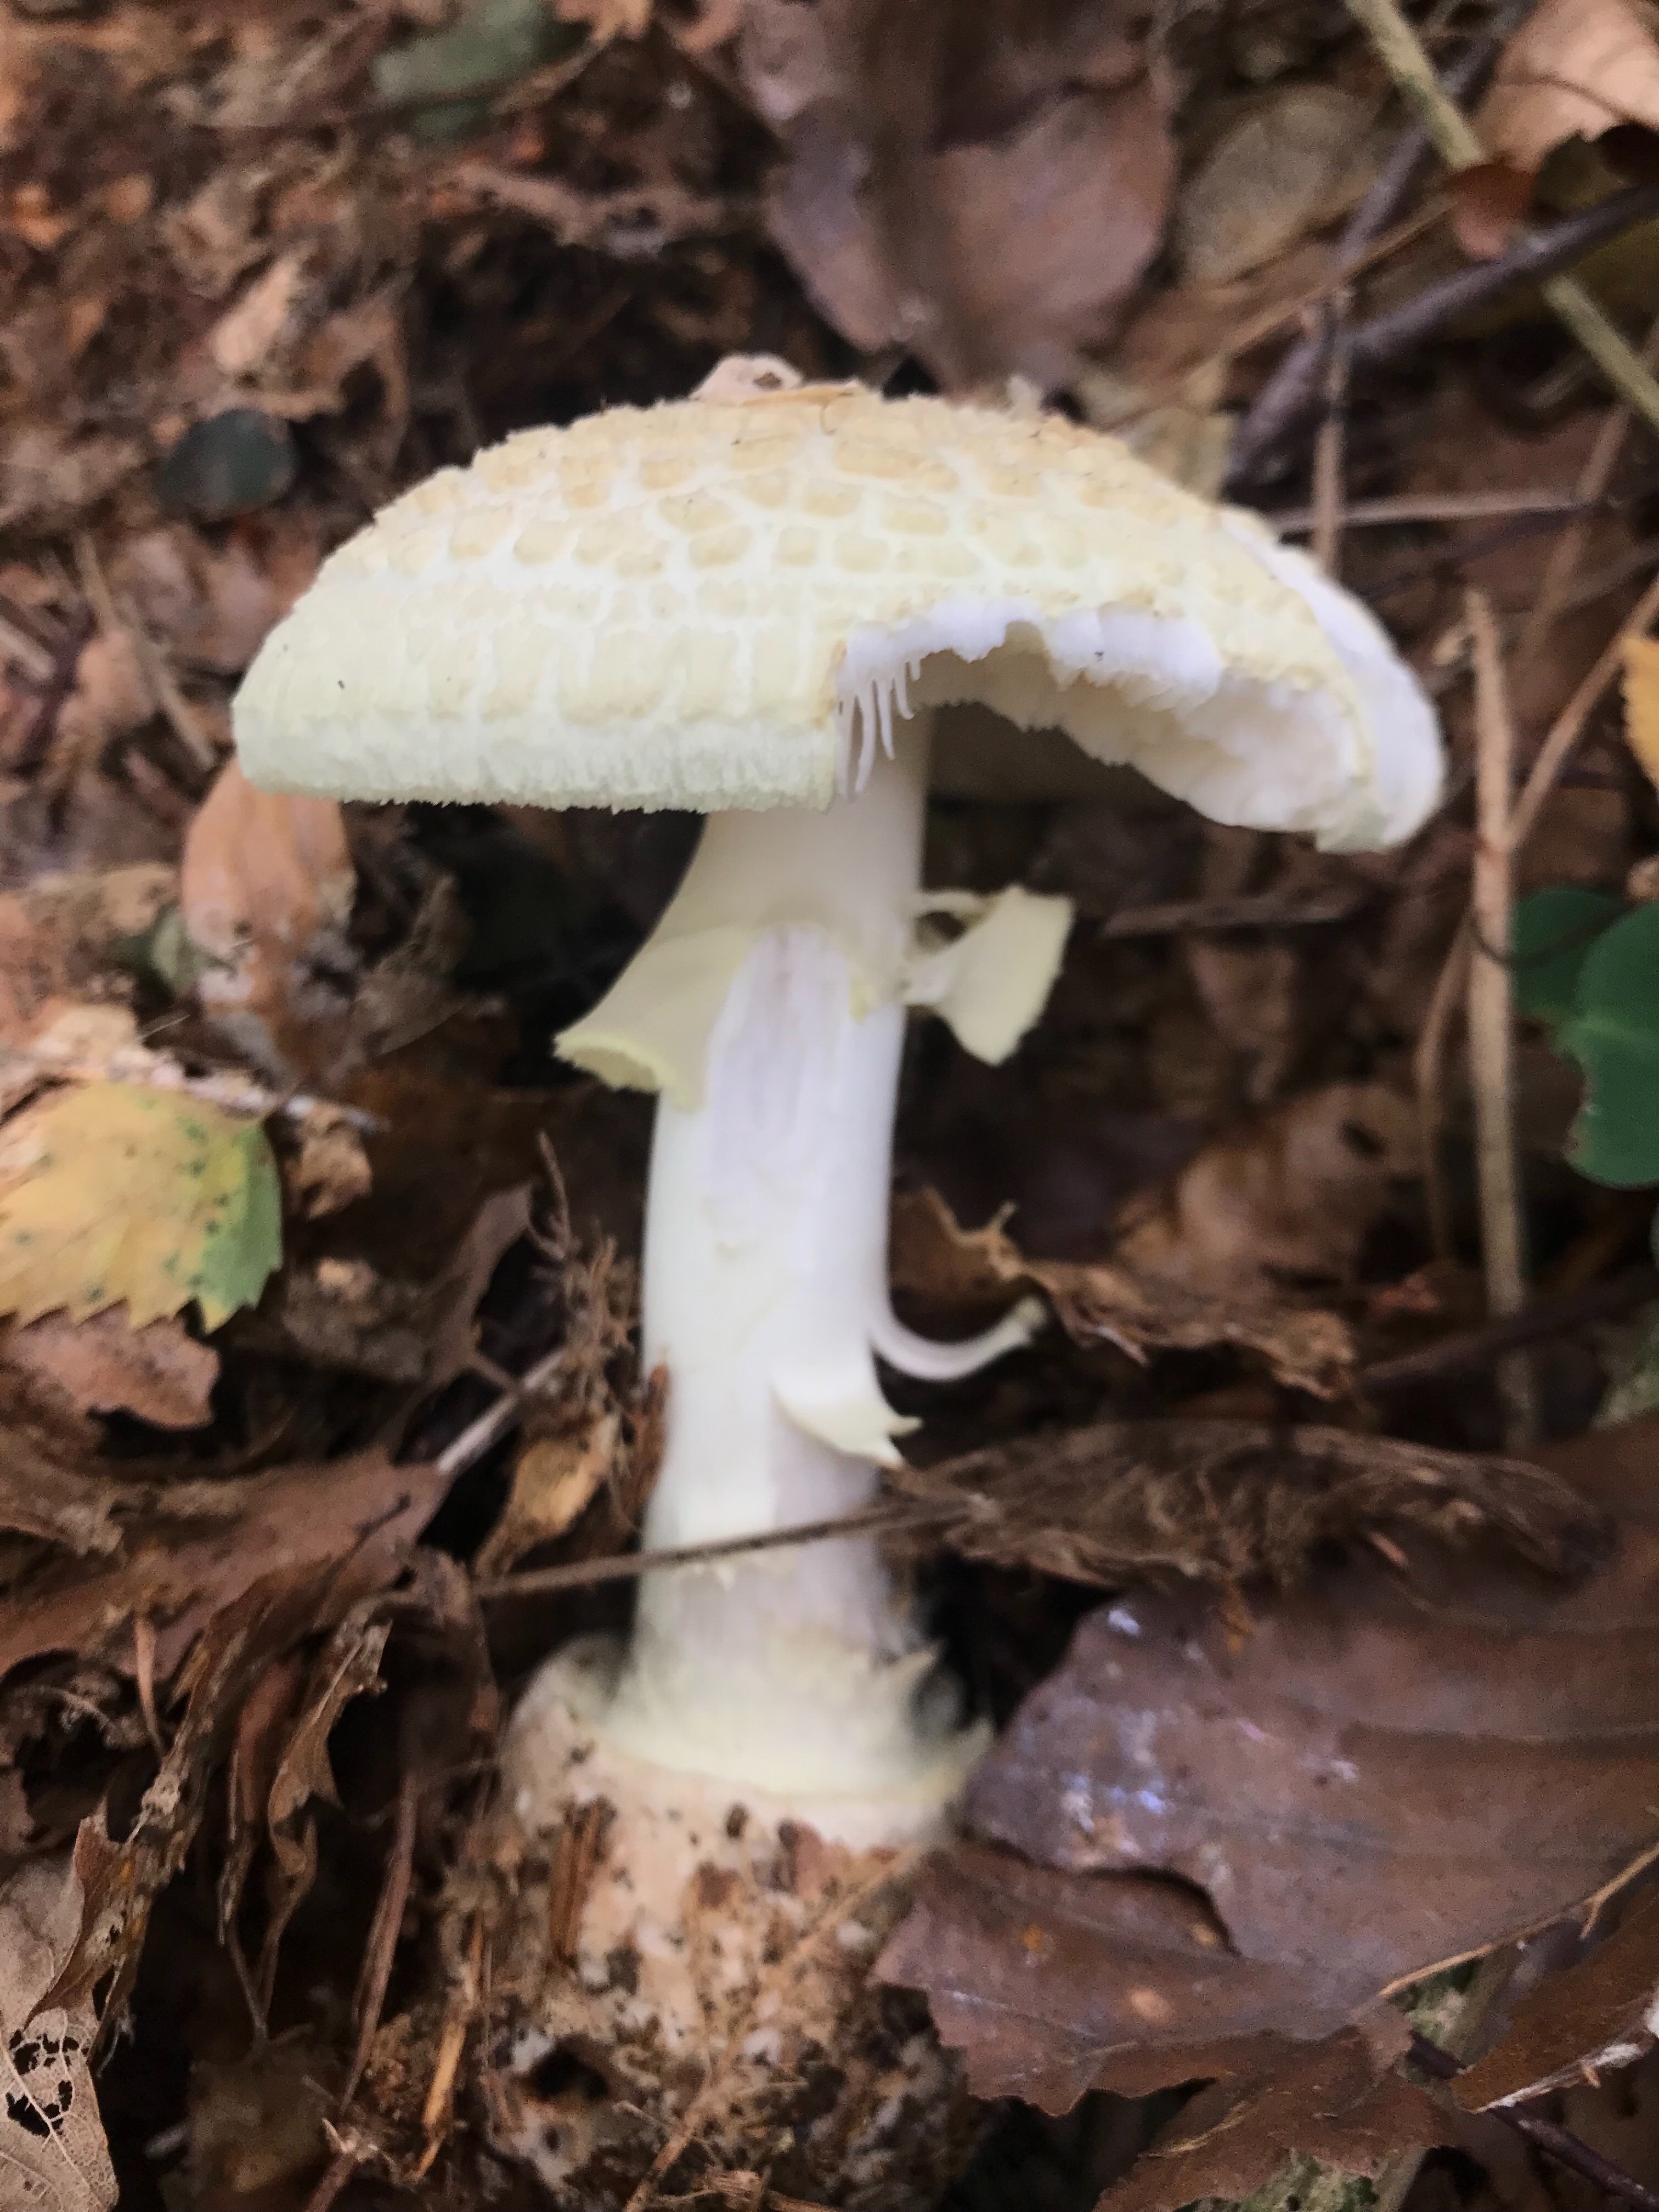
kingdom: Fungi
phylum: Basidiomycota
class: Agaricomycetes
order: Agaricales
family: Amanitaceae
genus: Amanita
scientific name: Amanita citrina
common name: kugleknoldet fluesvamp
